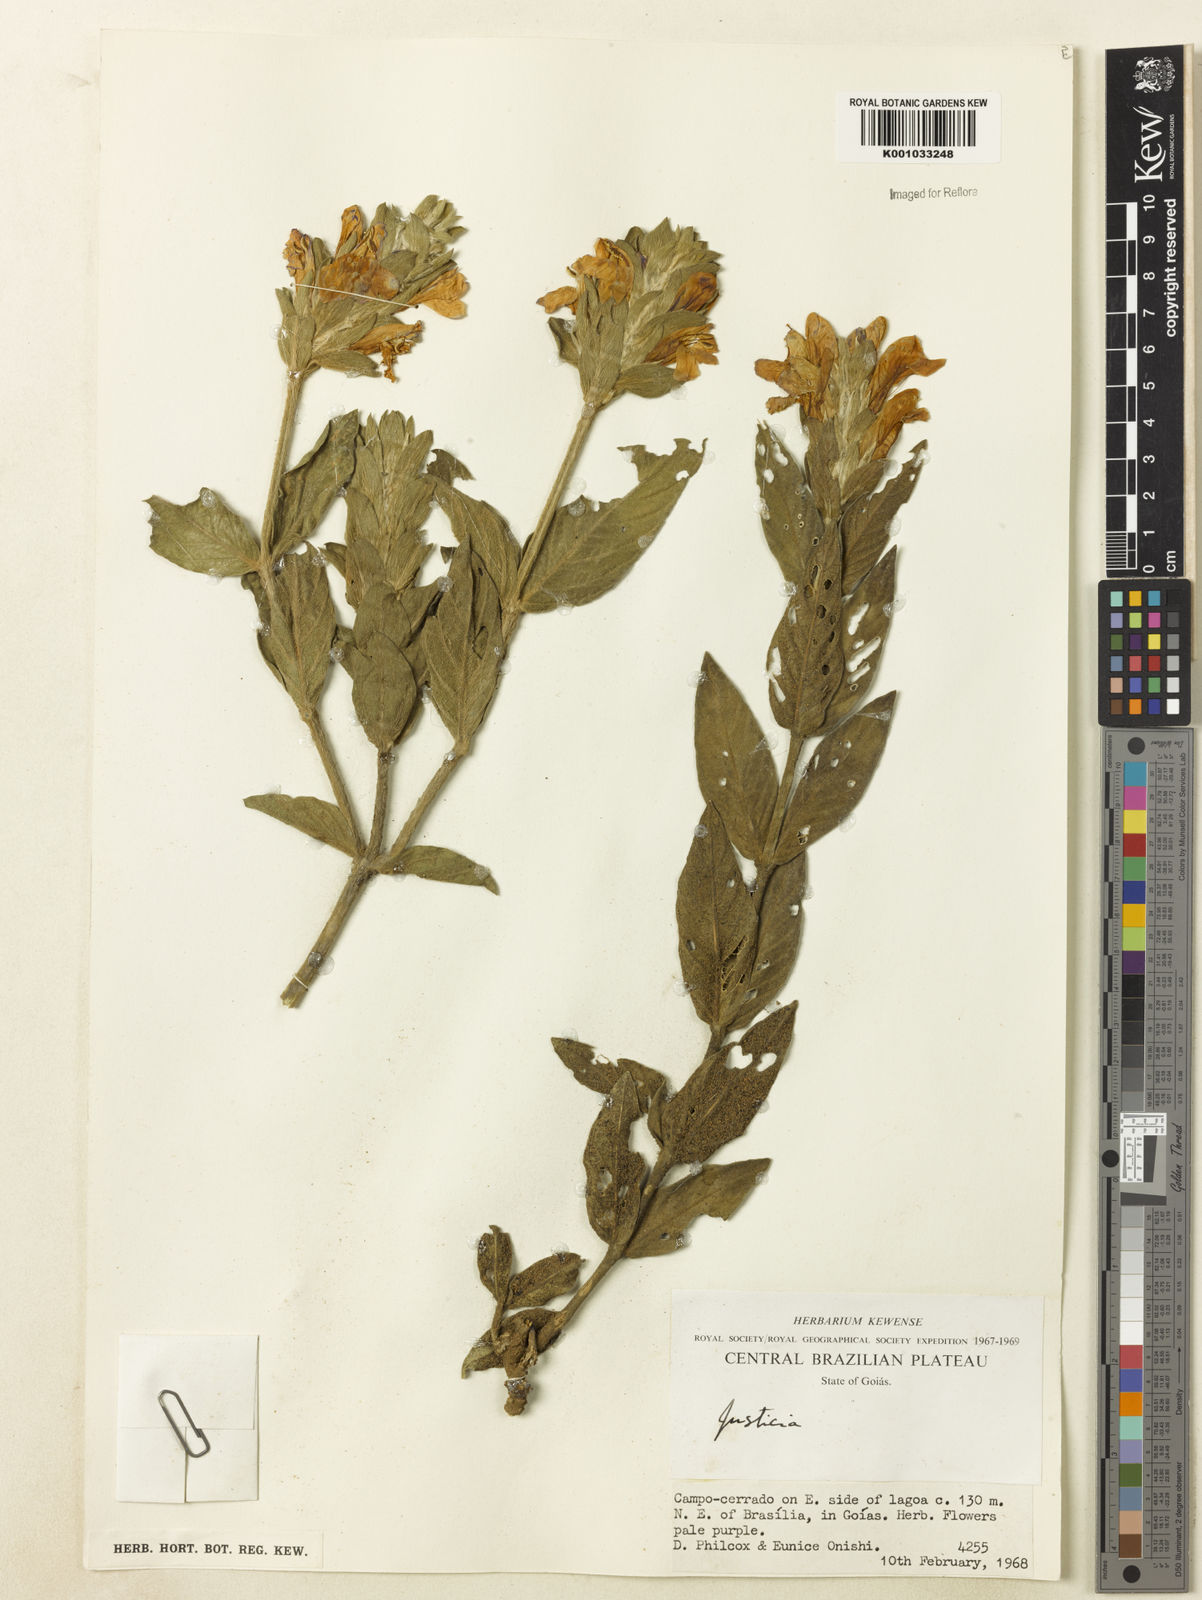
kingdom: Plantae
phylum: Tracheophyta
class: Magnoliopsida
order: Lamiales
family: Acanthaceae
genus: Justicia
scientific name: Justicia chrysotrichoma
